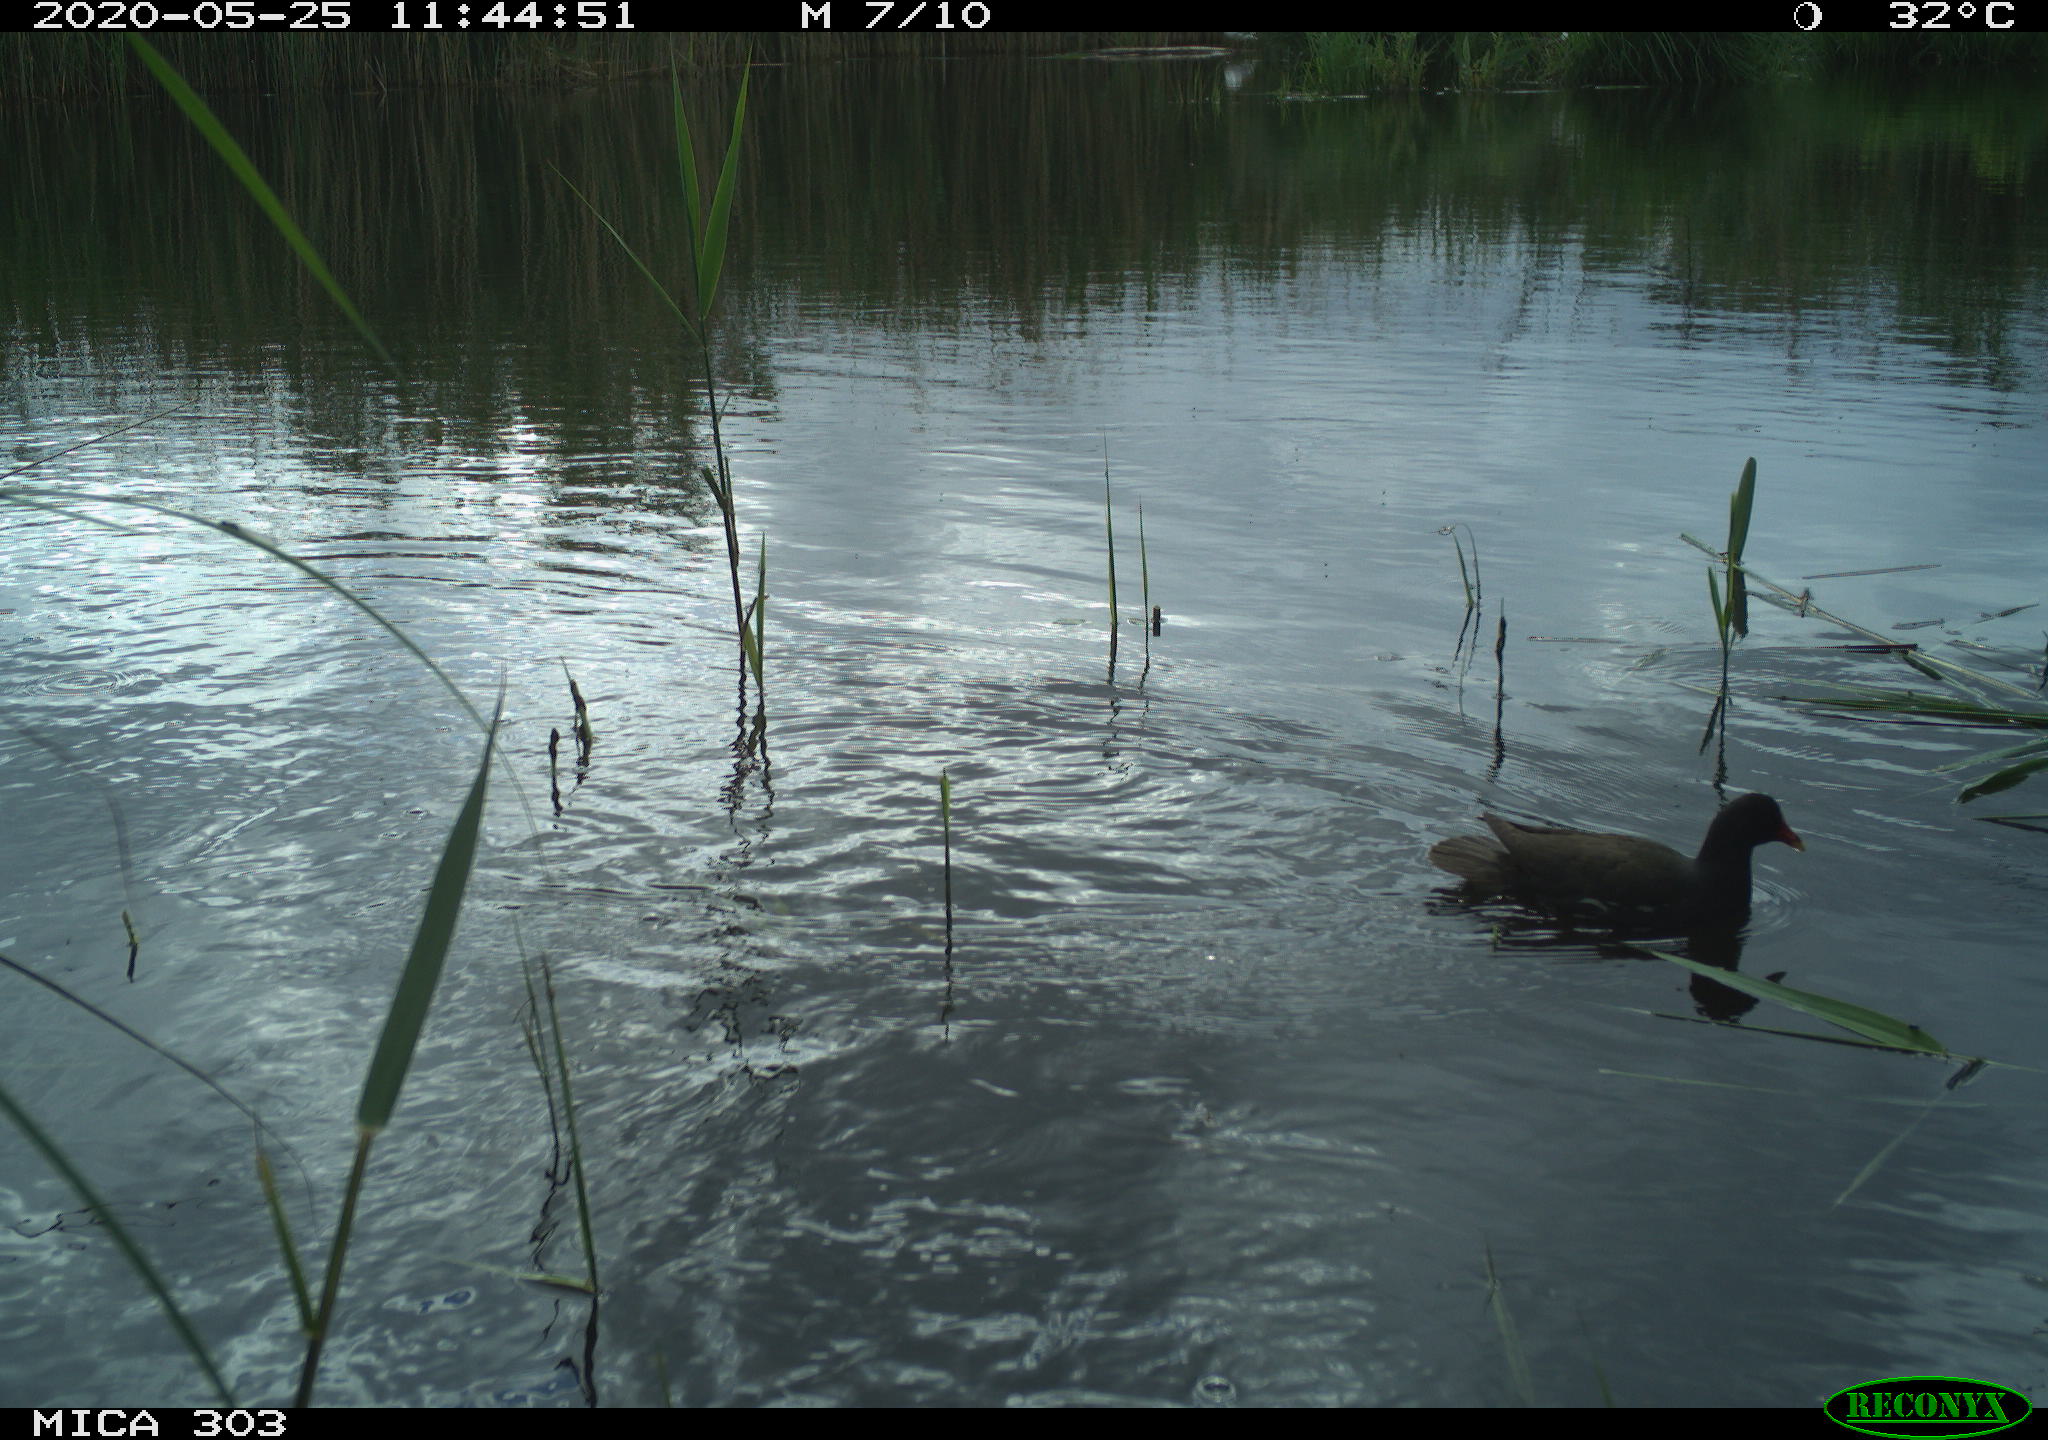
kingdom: Animalia
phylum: Chordata
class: Aves
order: Gruiformes
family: Rallidae
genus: Gallinula
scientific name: Gallinula chloropus
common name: Common moorhen
